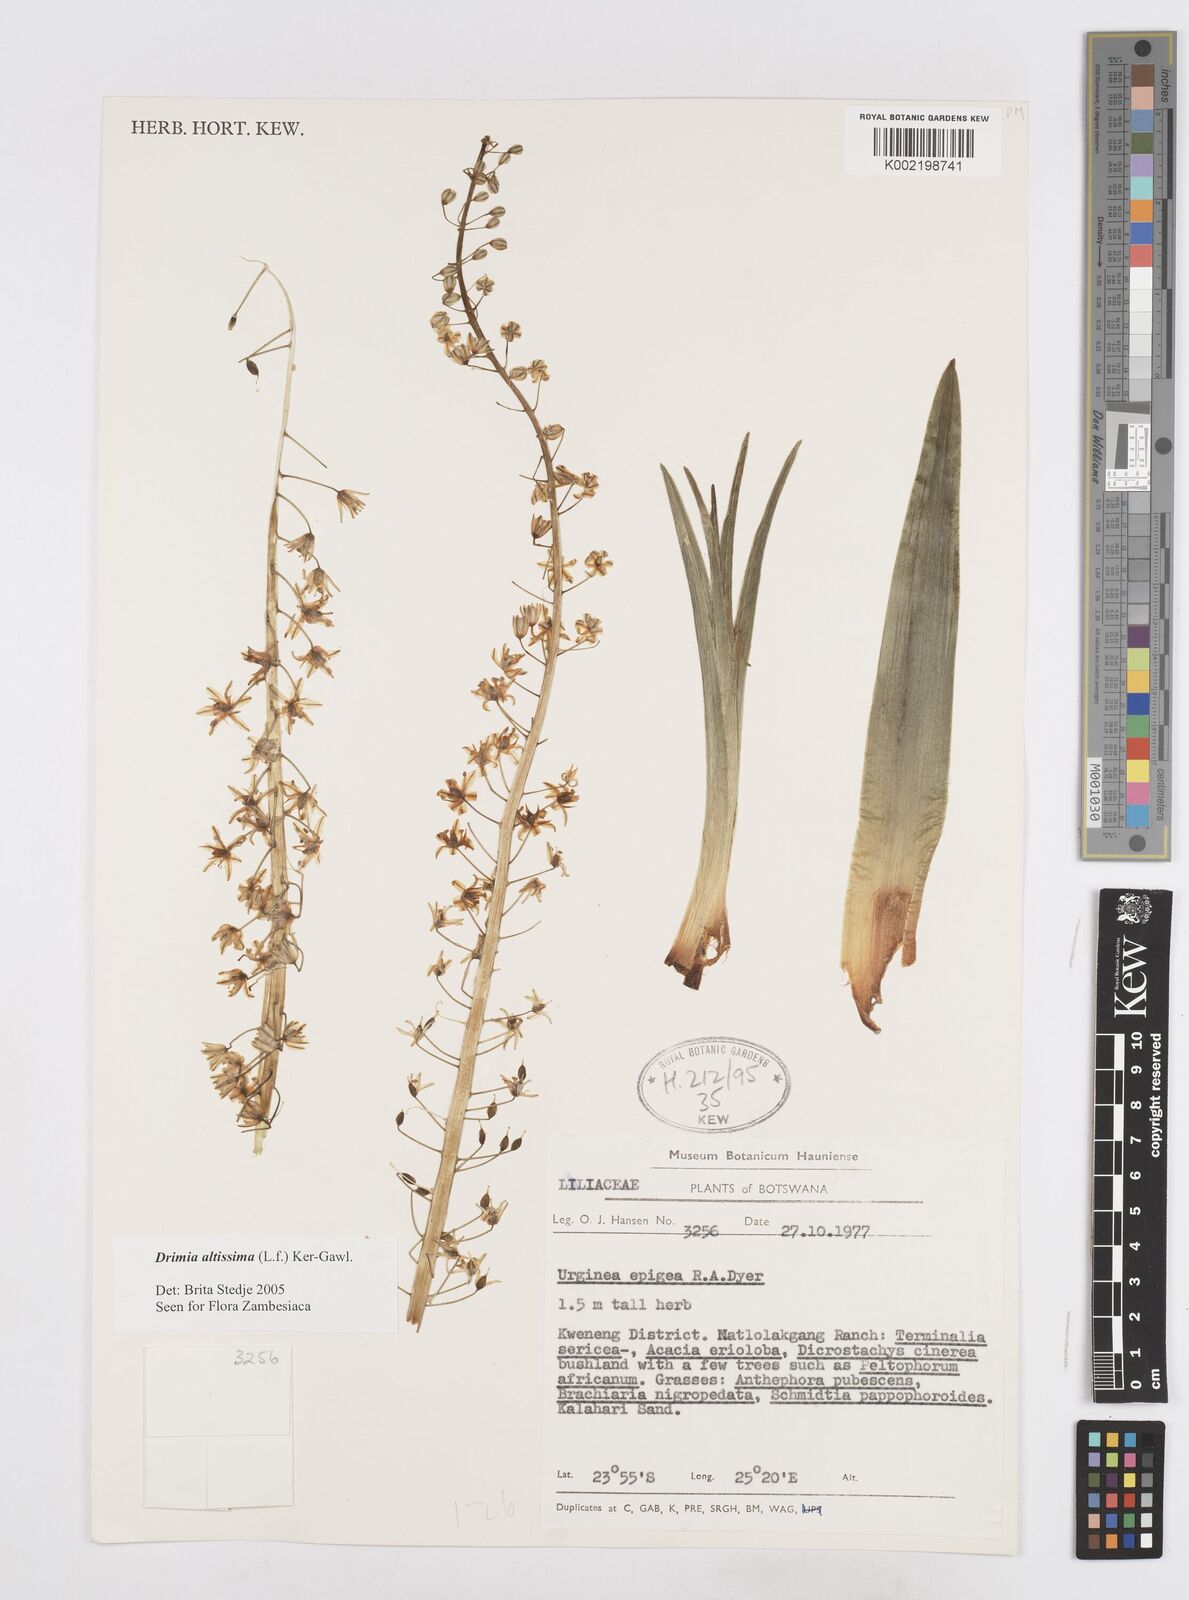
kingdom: Plantae
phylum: Tracheophyta
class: Liliopsida
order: Asparagales
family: Asparagaceae
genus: Drimia
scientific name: Drimia altissima
